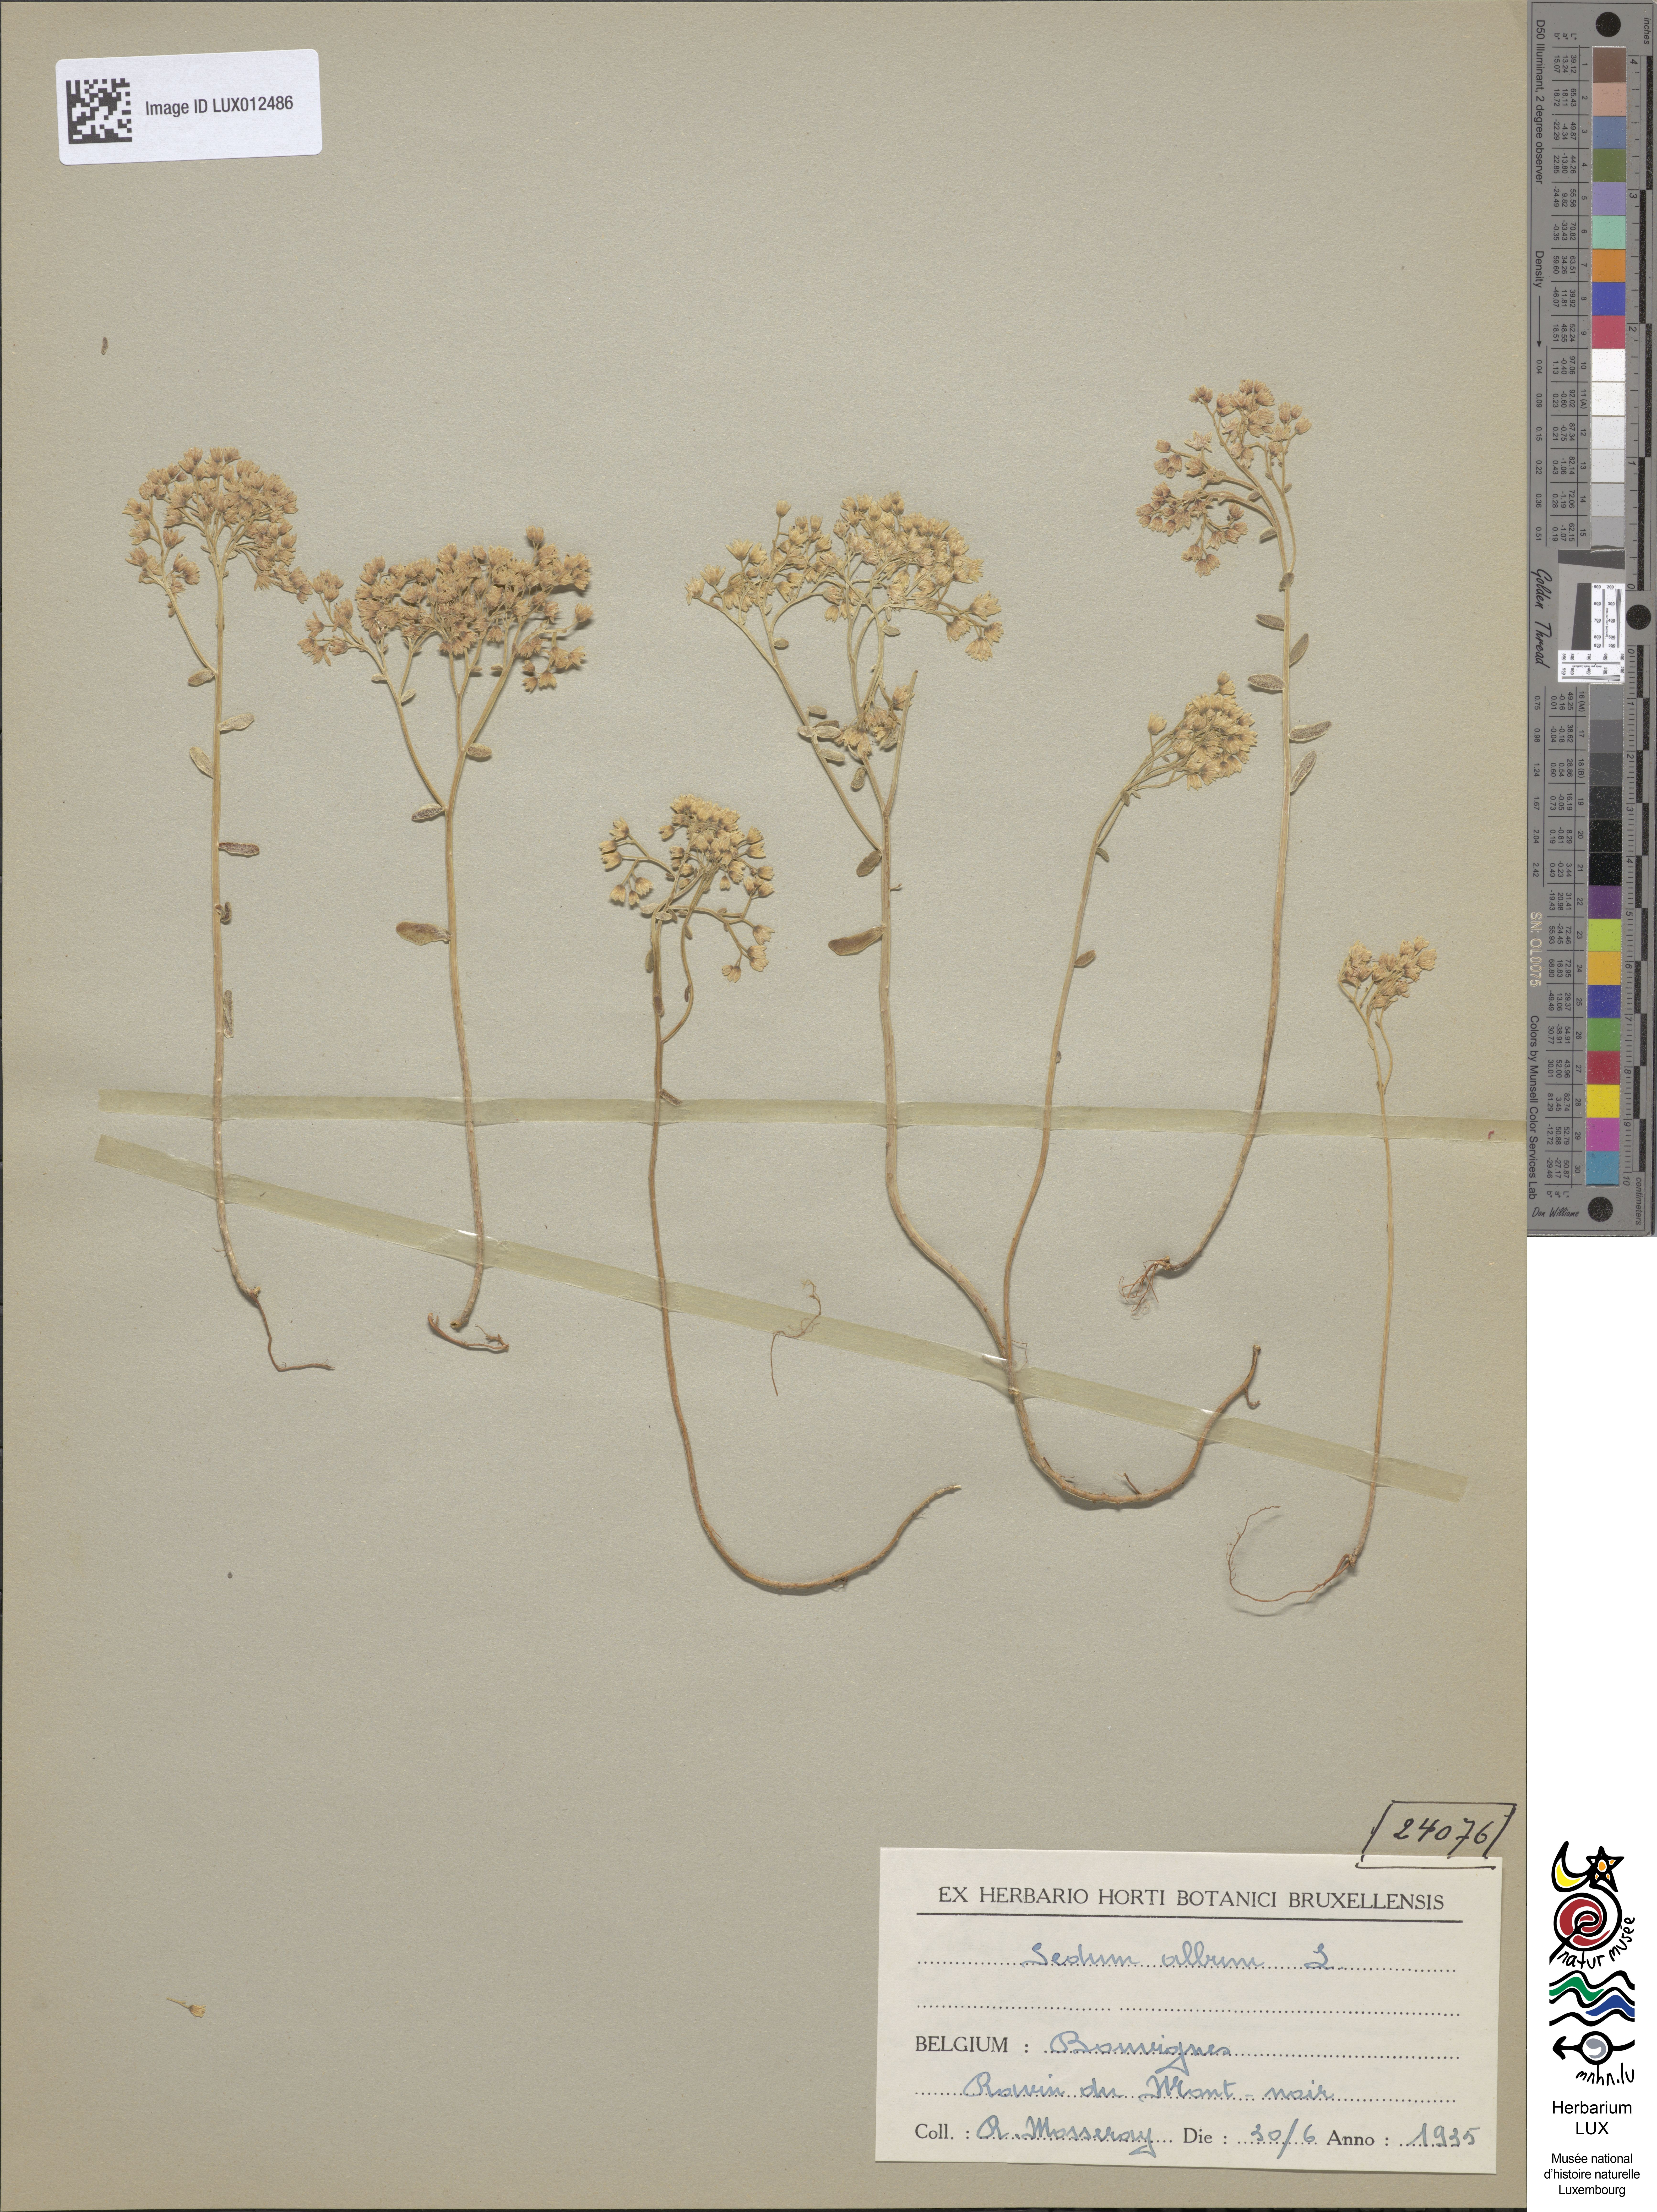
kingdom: Plantae
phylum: Tracheophyta
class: Magnoliopsida
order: Saxifragales
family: Crassulaceae
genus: Sedum
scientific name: Sedum album
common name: White stonecrop
